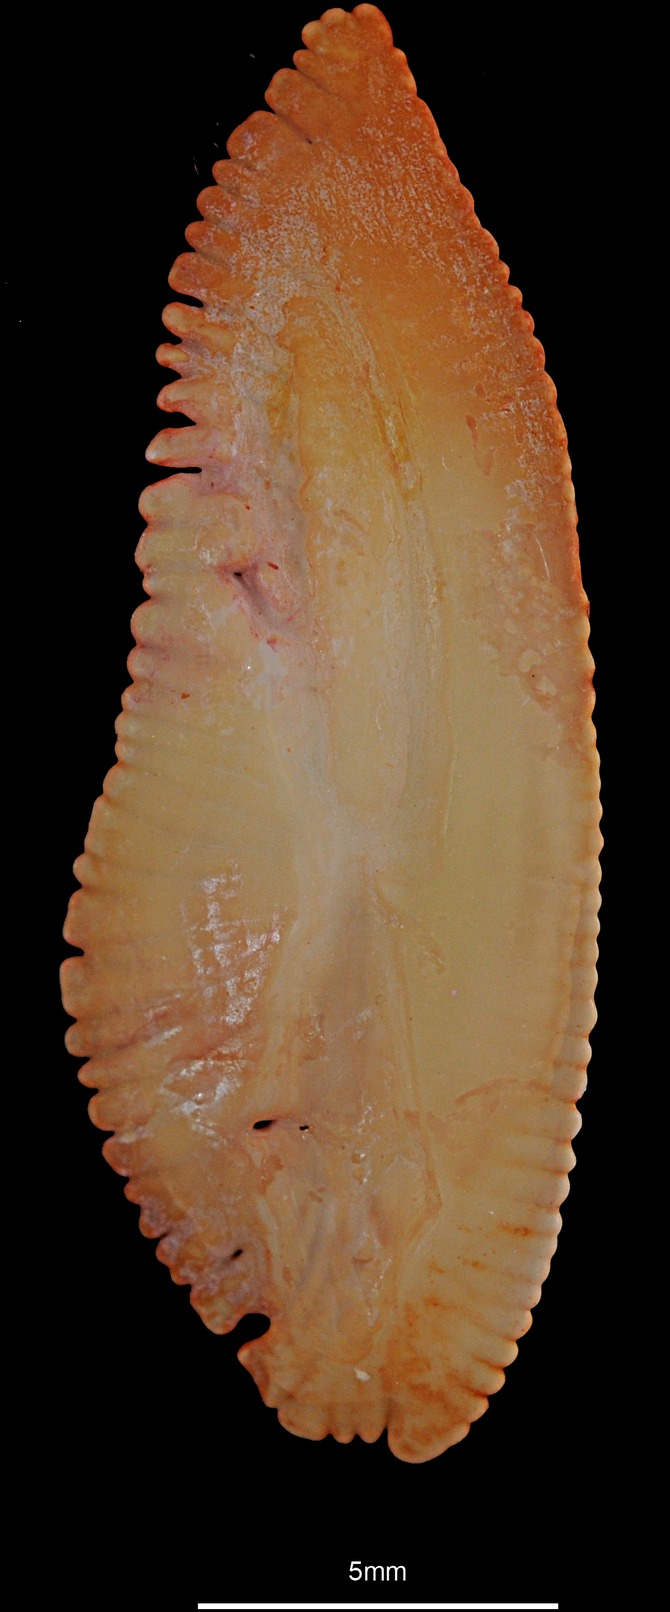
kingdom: Animalia
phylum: Chordata
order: Gadiformes
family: Merlucciidae
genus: Merluccius
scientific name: Merluccius merluccius
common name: European hake
